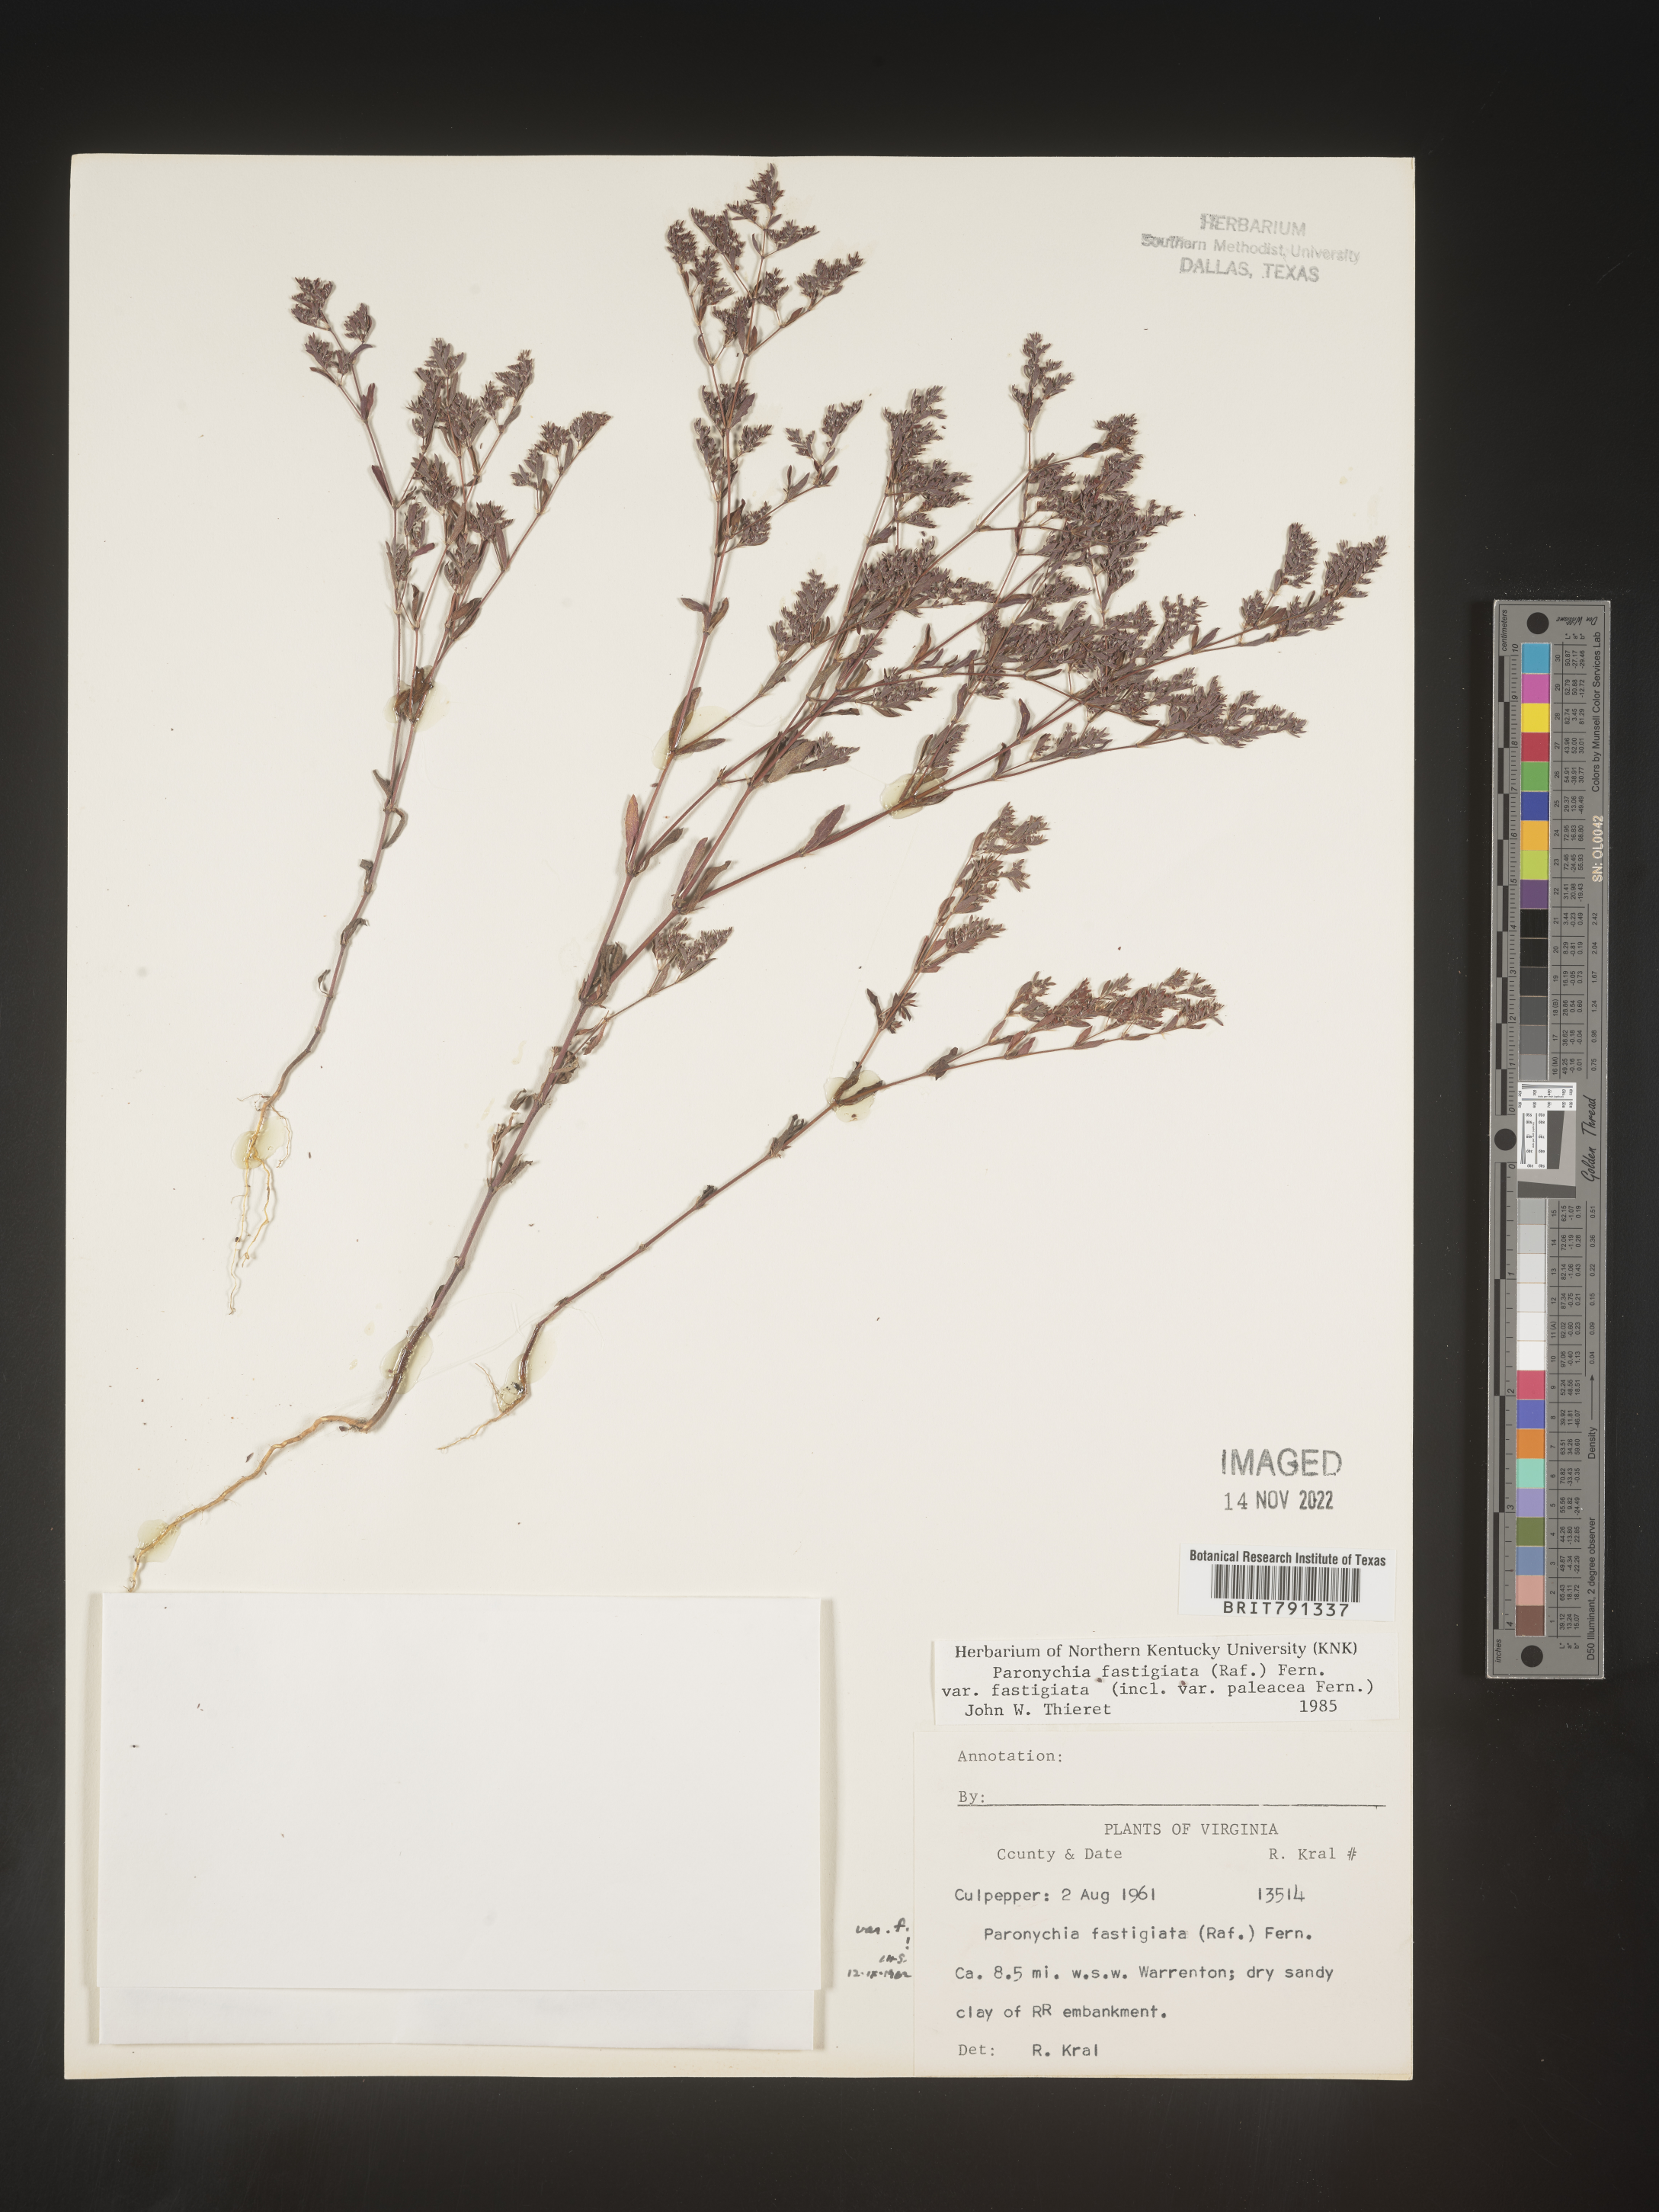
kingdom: Plantae
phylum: Tracheophyta
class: Magnoliopsida
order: Caryophyllales
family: Caryophyllaceae
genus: Paronychia
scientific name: Paronychia fastigiata
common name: Branching forked whitlow-wort
